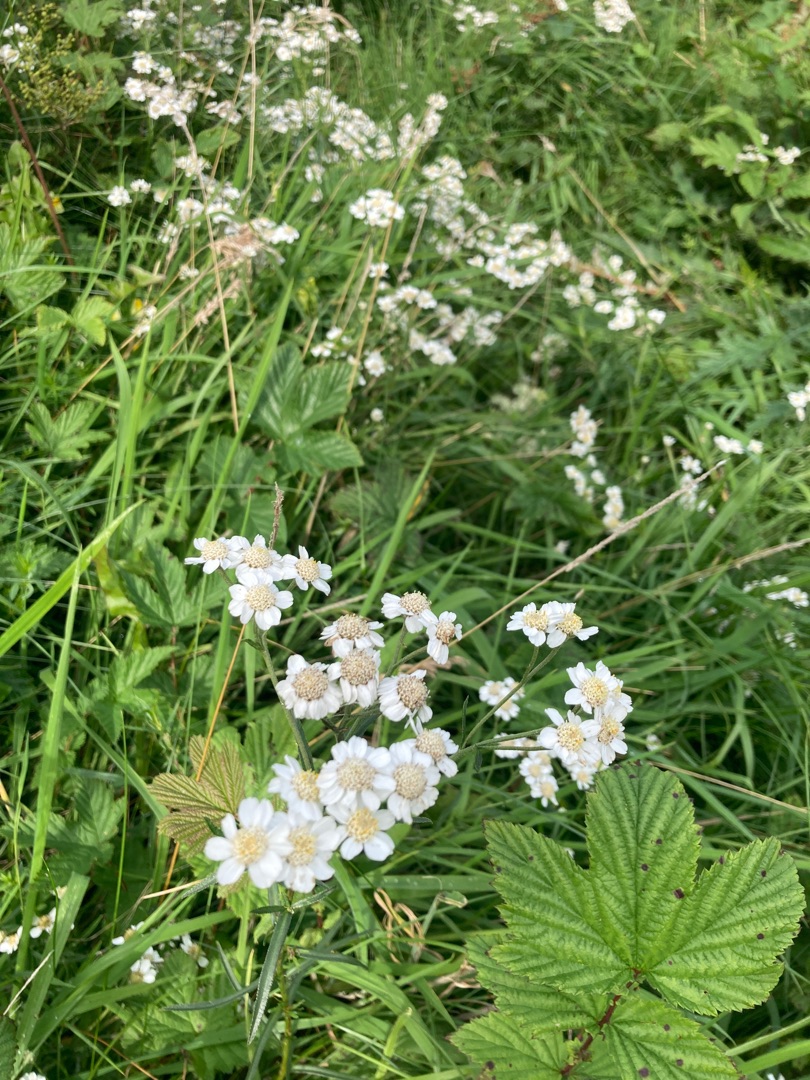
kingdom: Plantae
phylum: Tracheophyta
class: Magnoliopsida
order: Asterales
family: Asteraceae
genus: Achillea
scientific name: Achillea ptarmica
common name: Nyse-røllike
